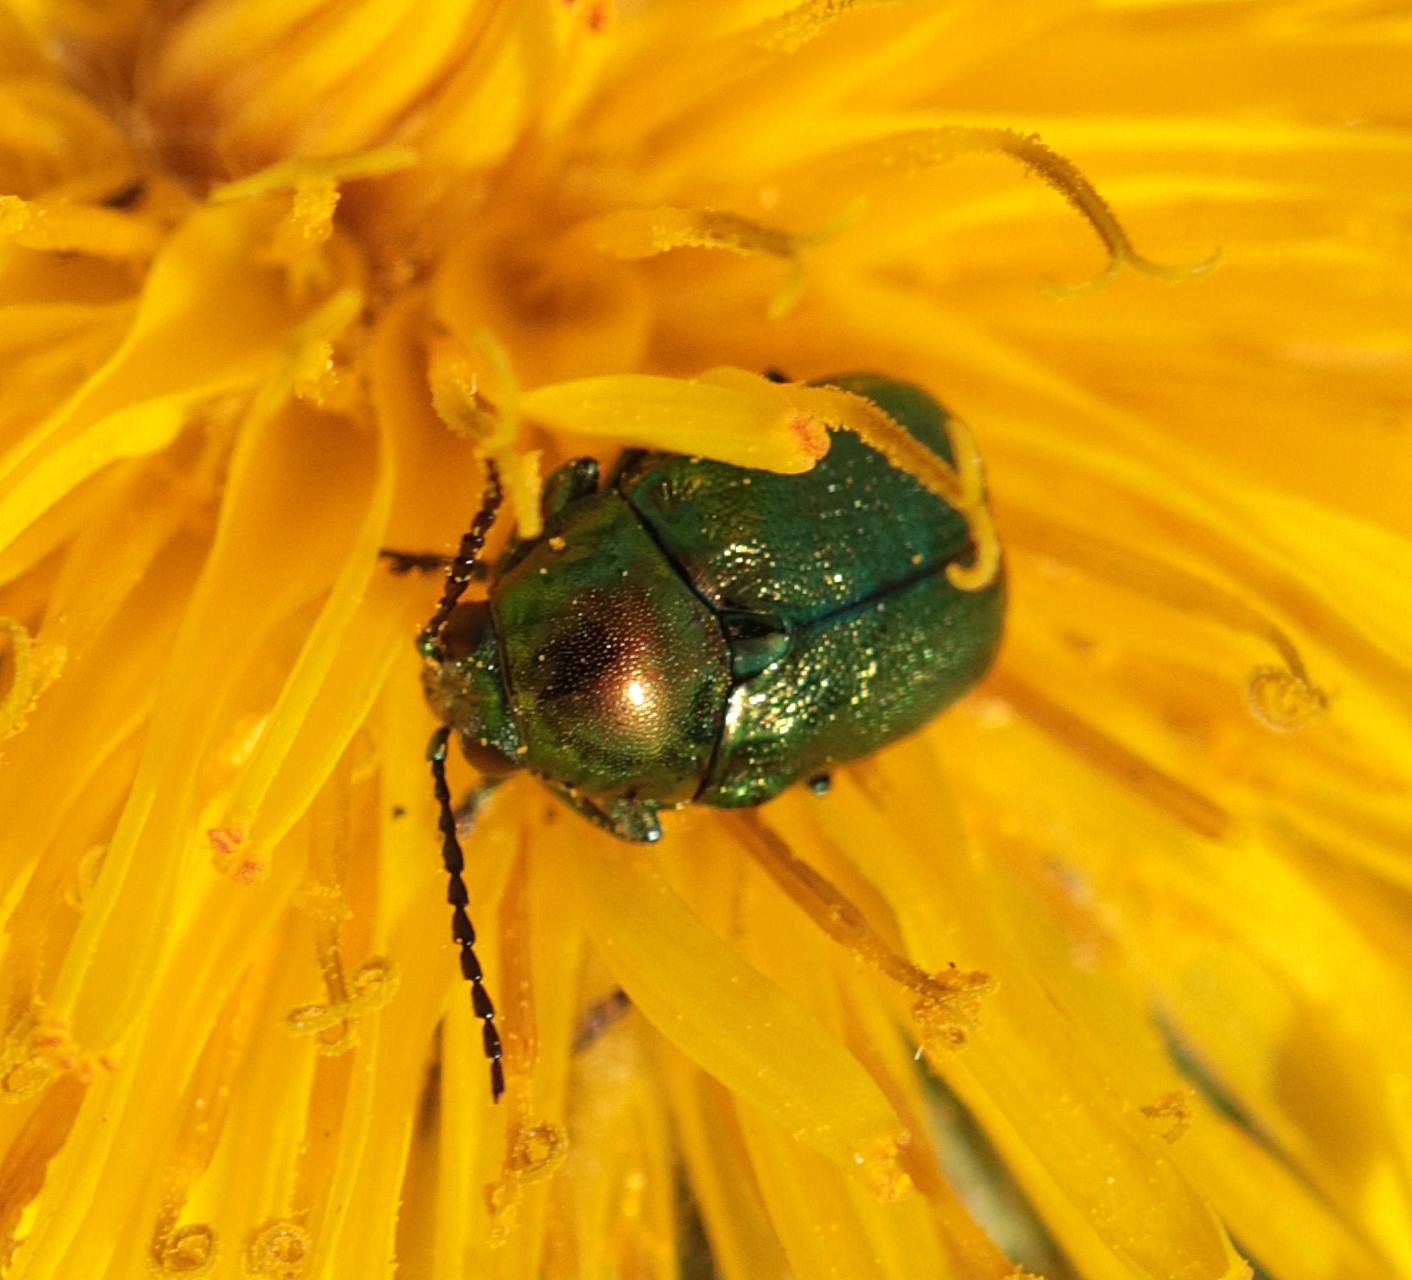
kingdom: Animalia
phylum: Arthropoda
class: Insecta
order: Coleoptera
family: Chrysomelidae
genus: Cryptocephalus
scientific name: Cryptocephalus aureolus
